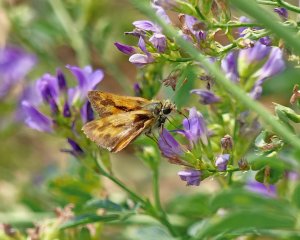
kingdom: Animalia
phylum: Arthropoda
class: Insecta
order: Lepidoptera
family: Hesperiidae
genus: Ochlodes
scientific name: Ochlodes sylvanoides
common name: Woodland Skipper
